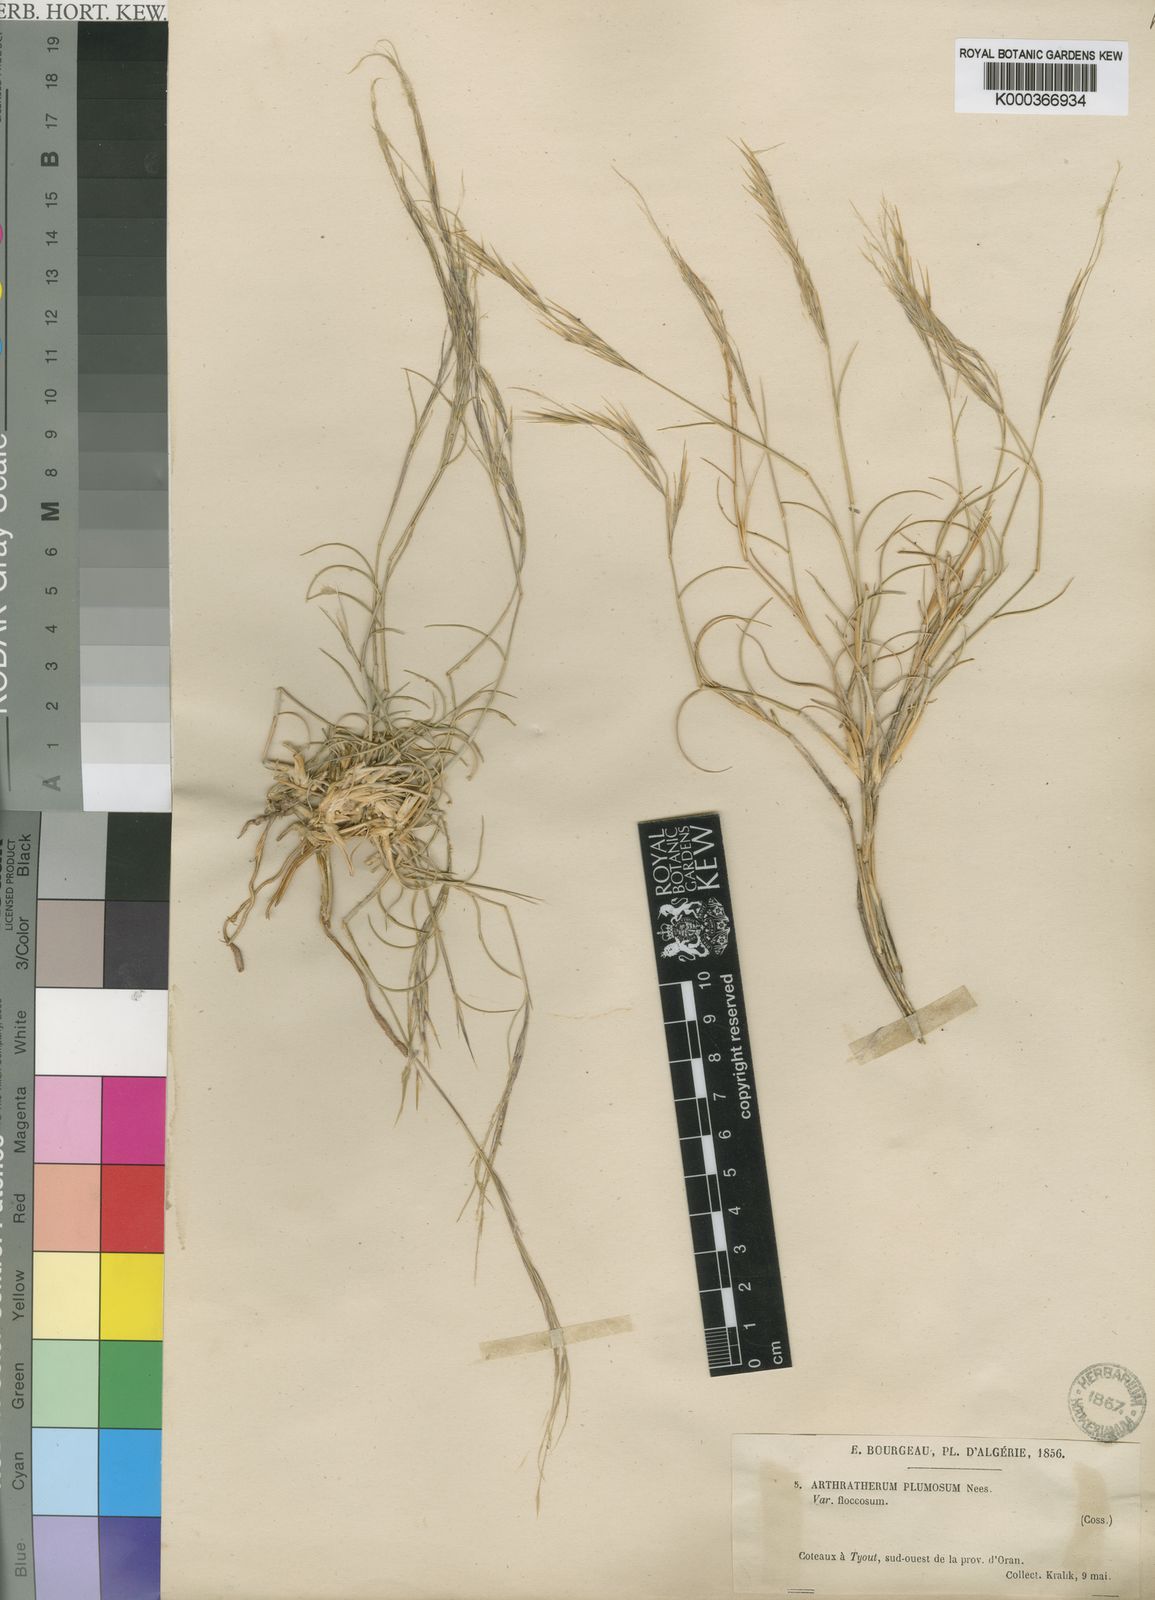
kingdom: Plantae
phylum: Tracheophyta
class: Liliopsida
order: Poales
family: Poaceae
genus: Stipagrostis
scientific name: Stipagrostis plumosa
